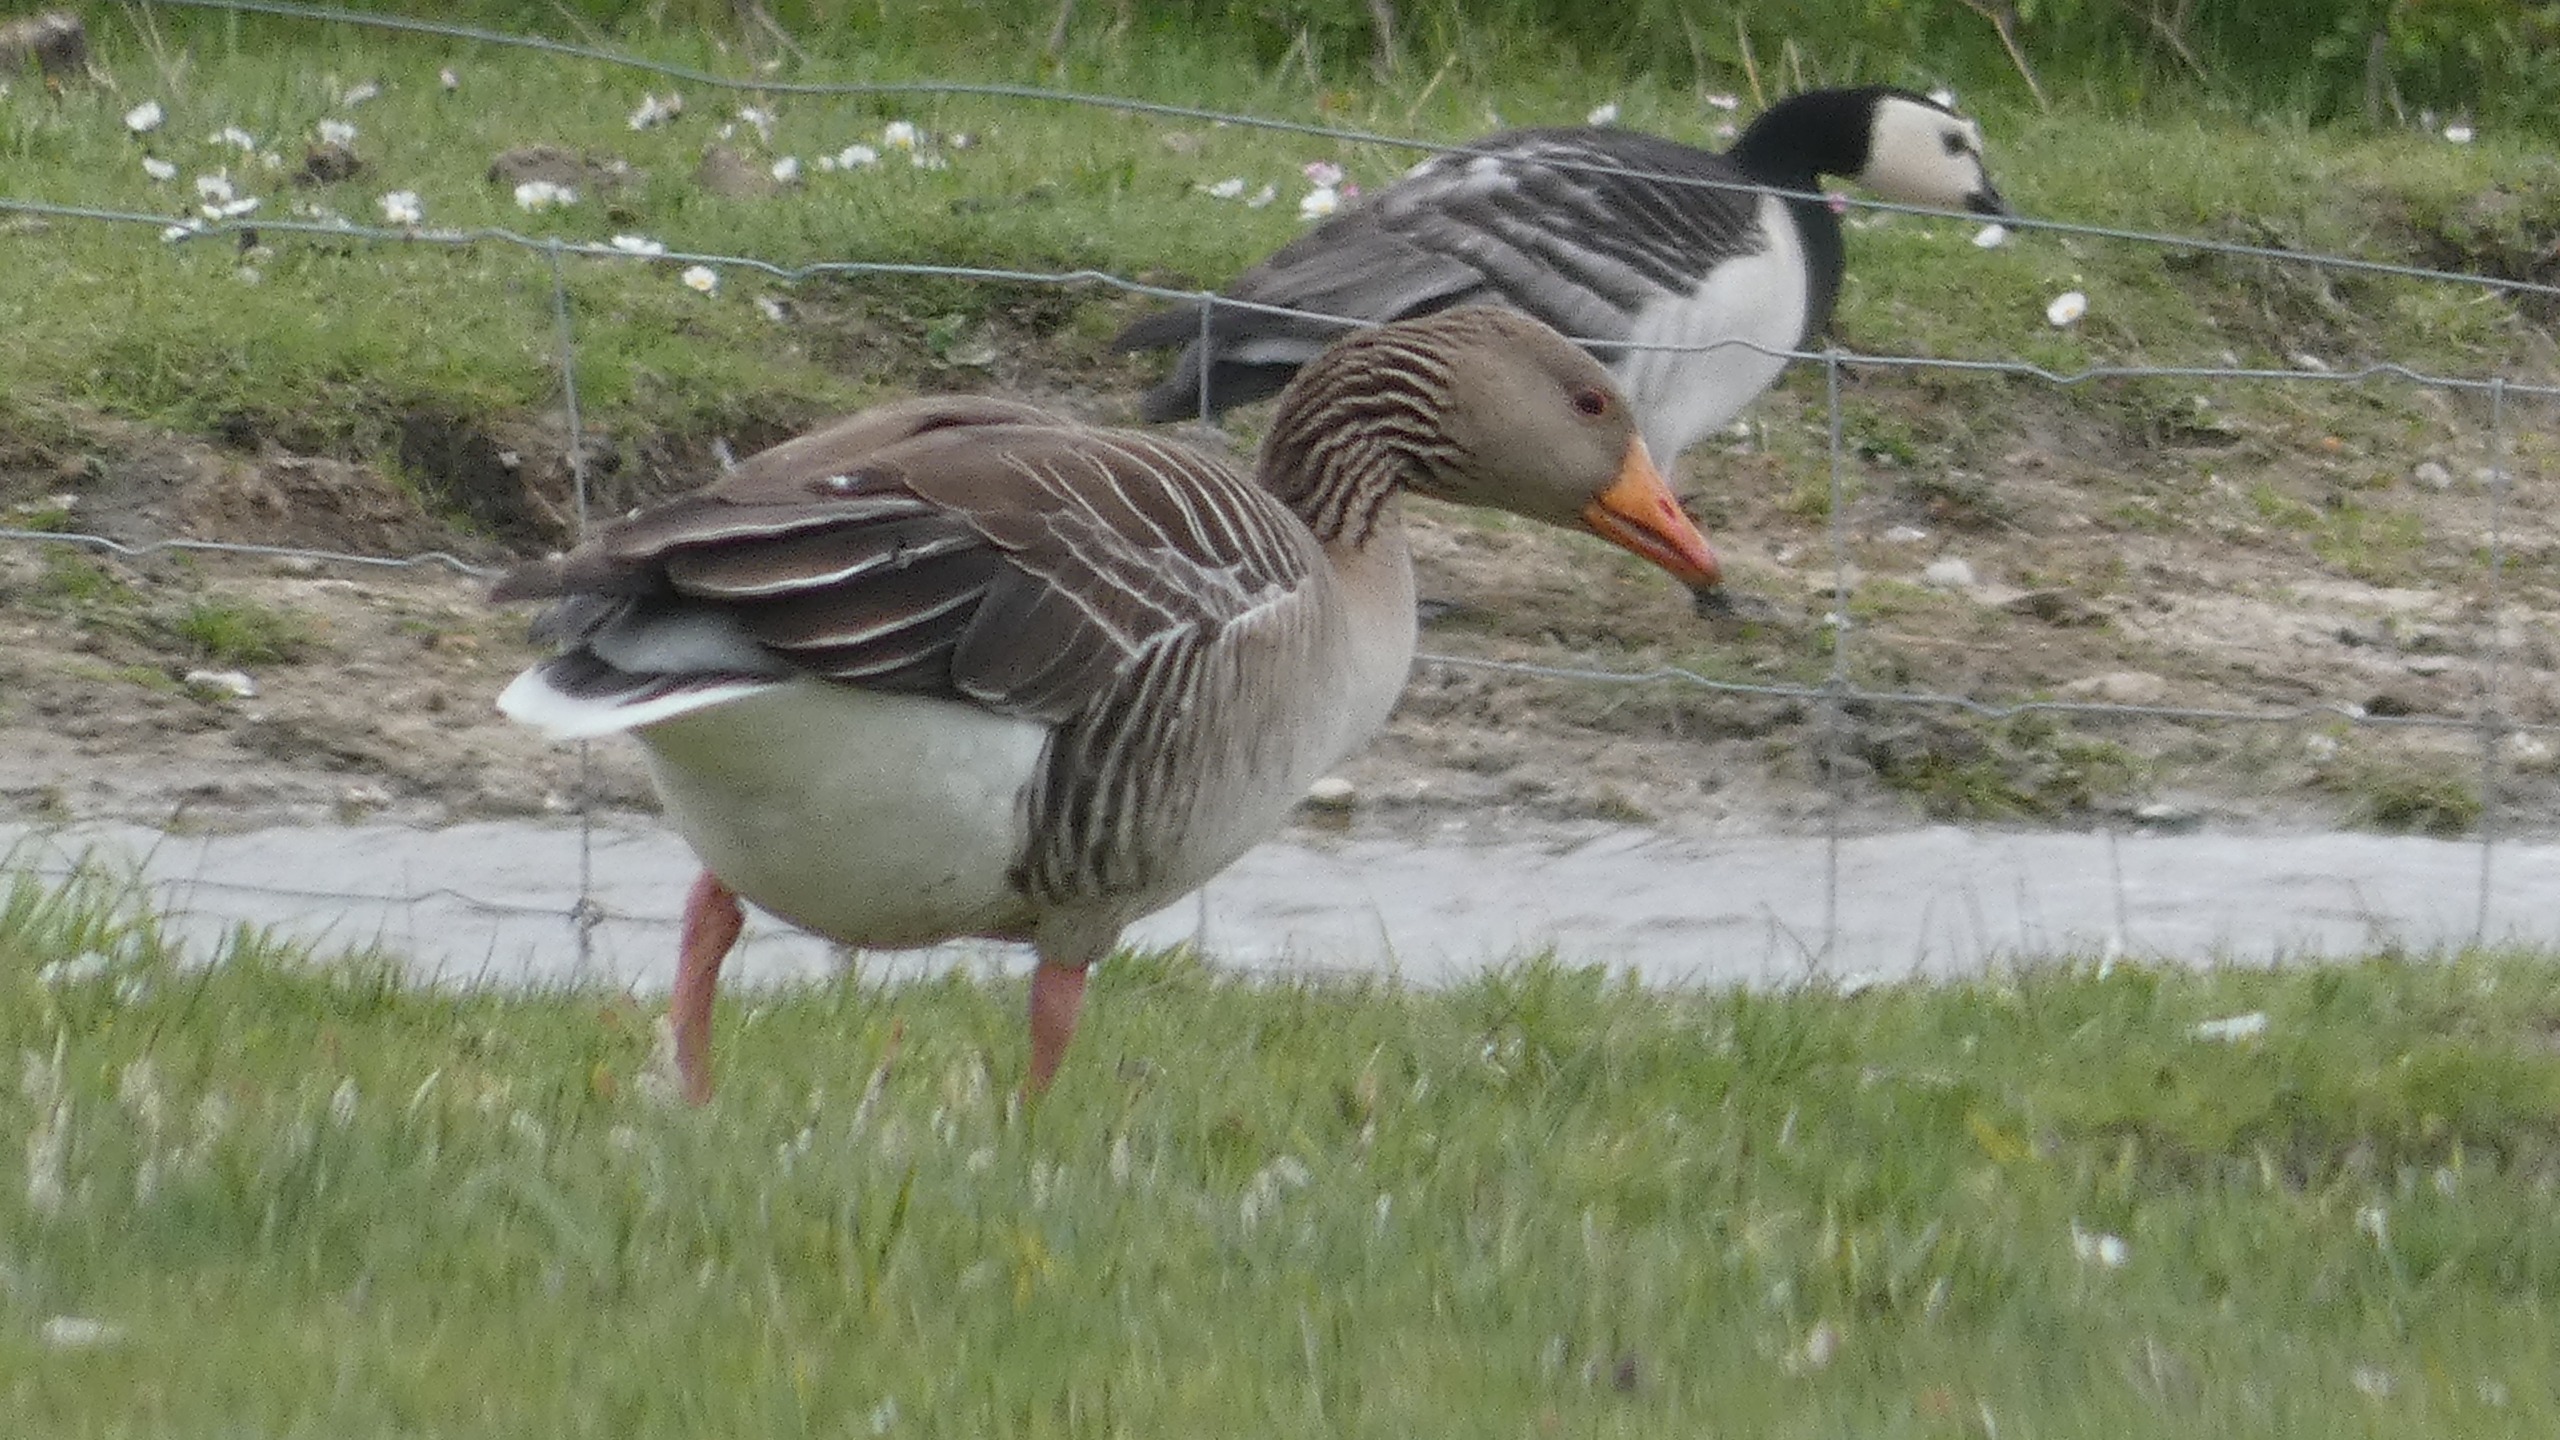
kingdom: Animalia
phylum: Chordata
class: Aves
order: Anseriformes
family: Anatidae
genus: Anser
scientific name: Anser anser
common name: Grågås
